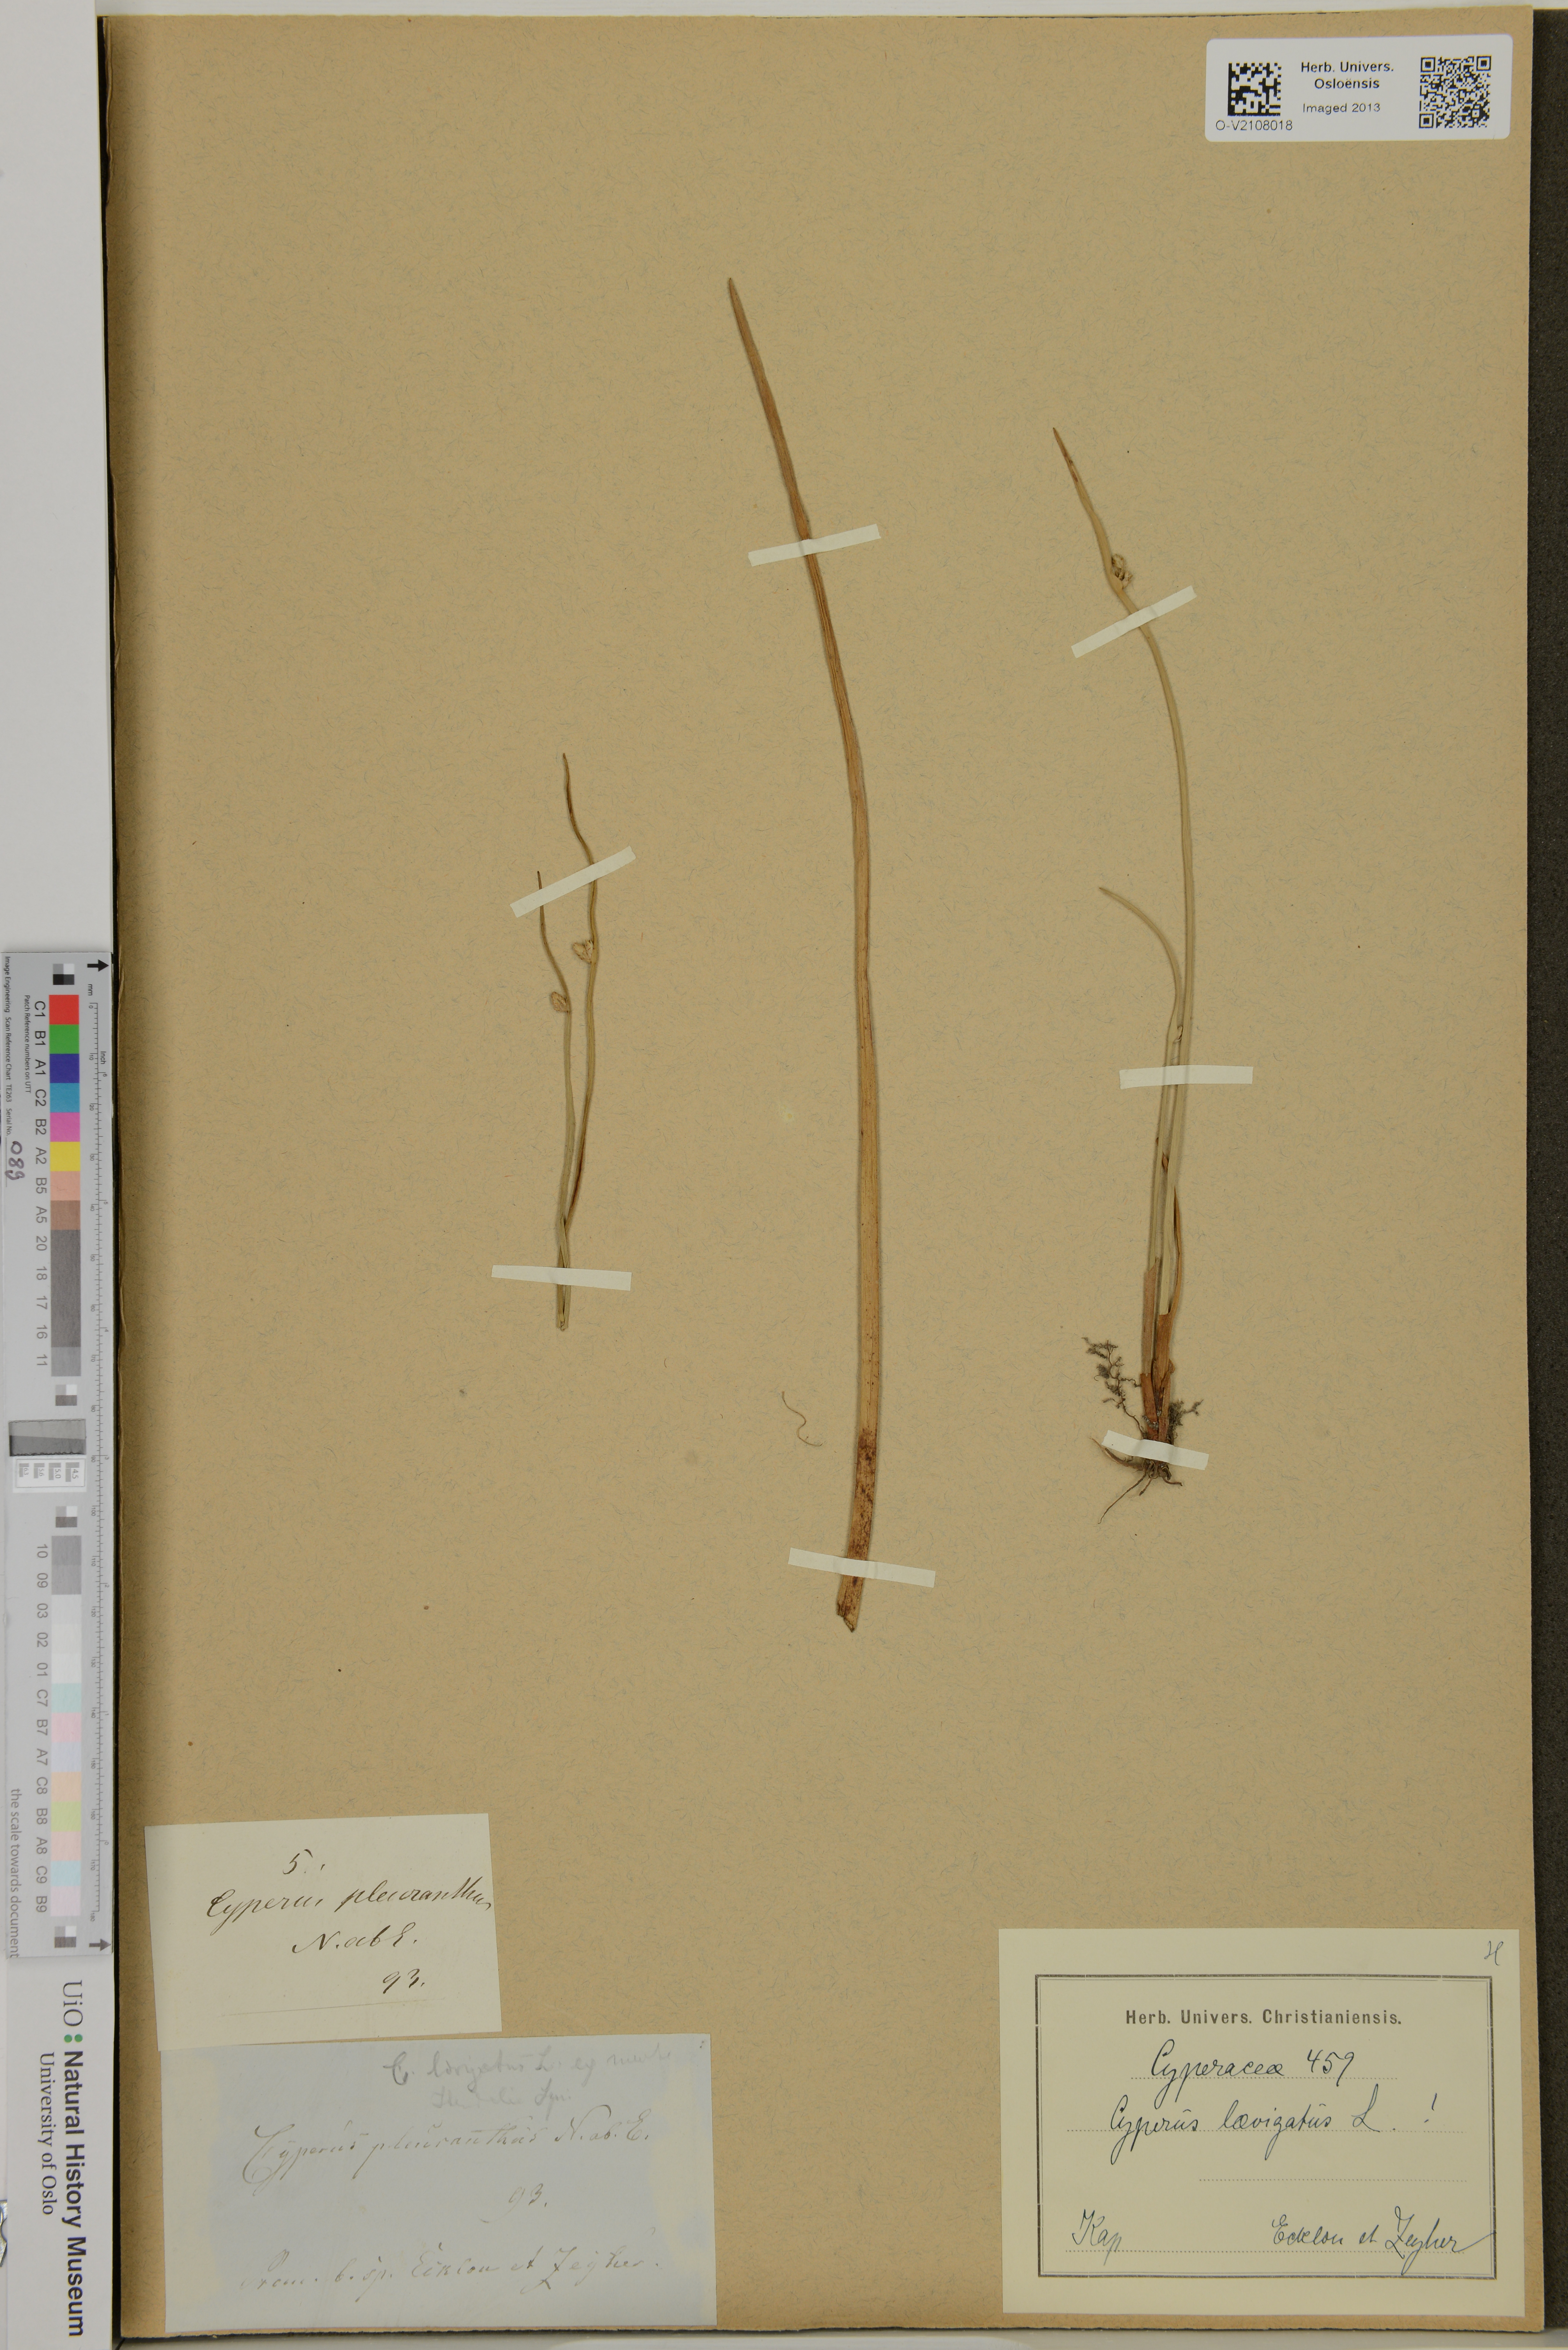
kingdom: Plantae
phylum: Tracheophyta
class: Liliopsida
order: Poales
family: Cyperaceae
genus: Cyperus
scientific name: Cyperus laevigatus
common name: Smooth flat sedge
